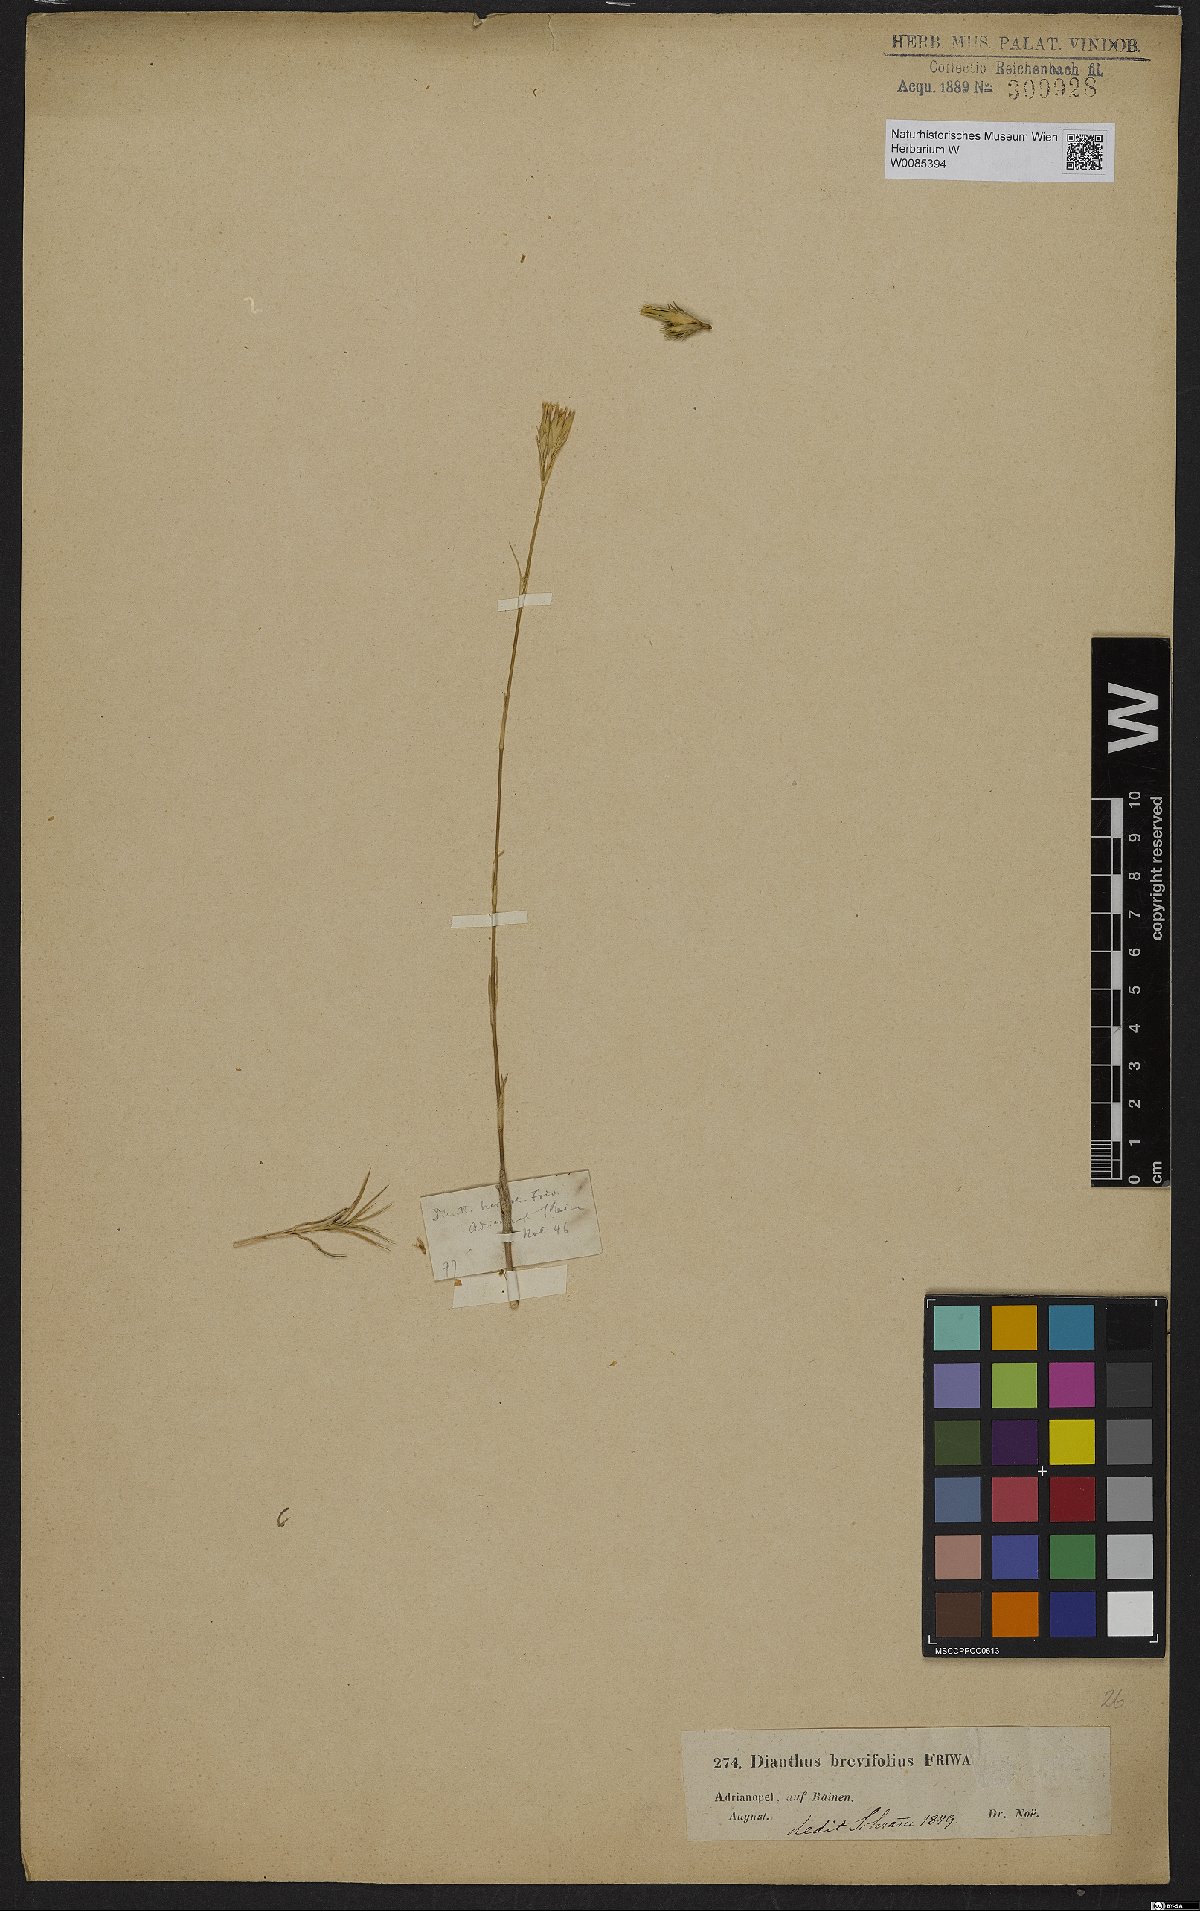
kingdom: Plantae
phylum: Tracheophyta
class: Magnoliopsida
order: Caryophyllales
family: Caryophyllaceae
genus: Dianthus
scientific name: Dianthus pinifolius
